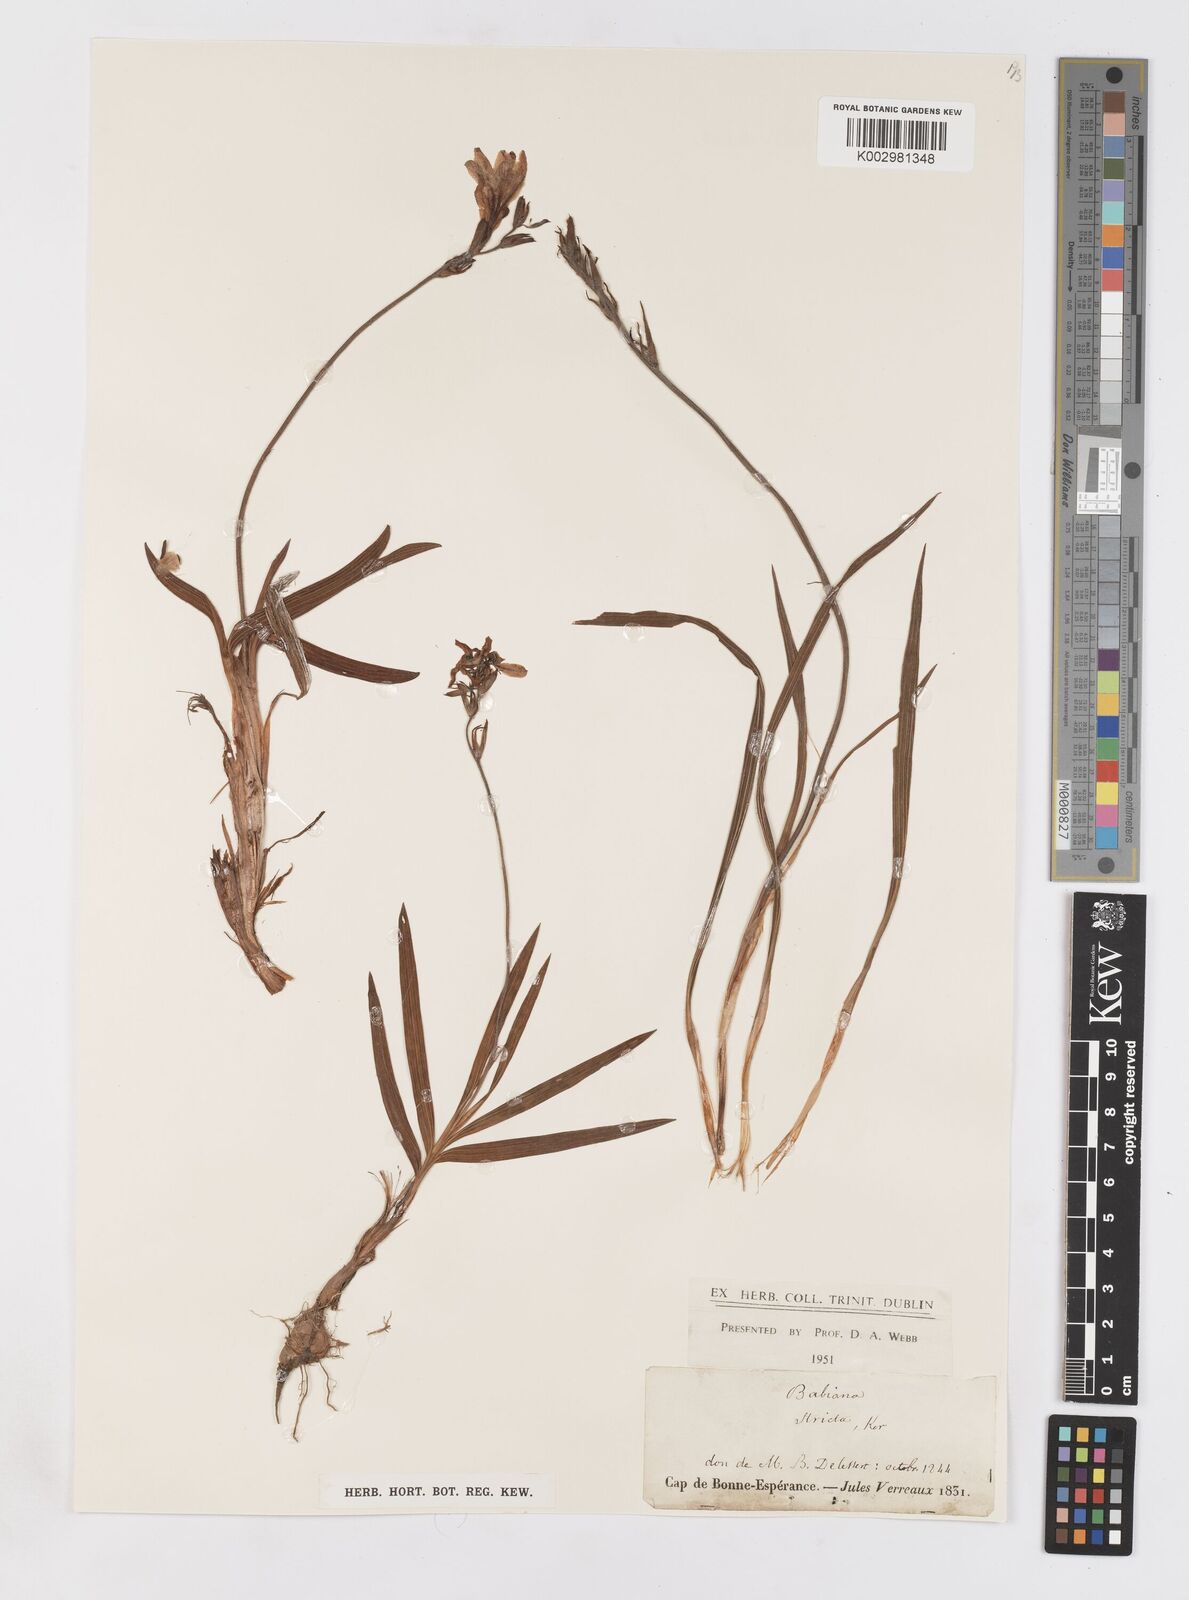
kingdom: Plantae
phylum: Tracheophyta
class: Liliopsida
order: Asparagales
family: Iridaceae
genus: Babiana
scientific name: Babiana
